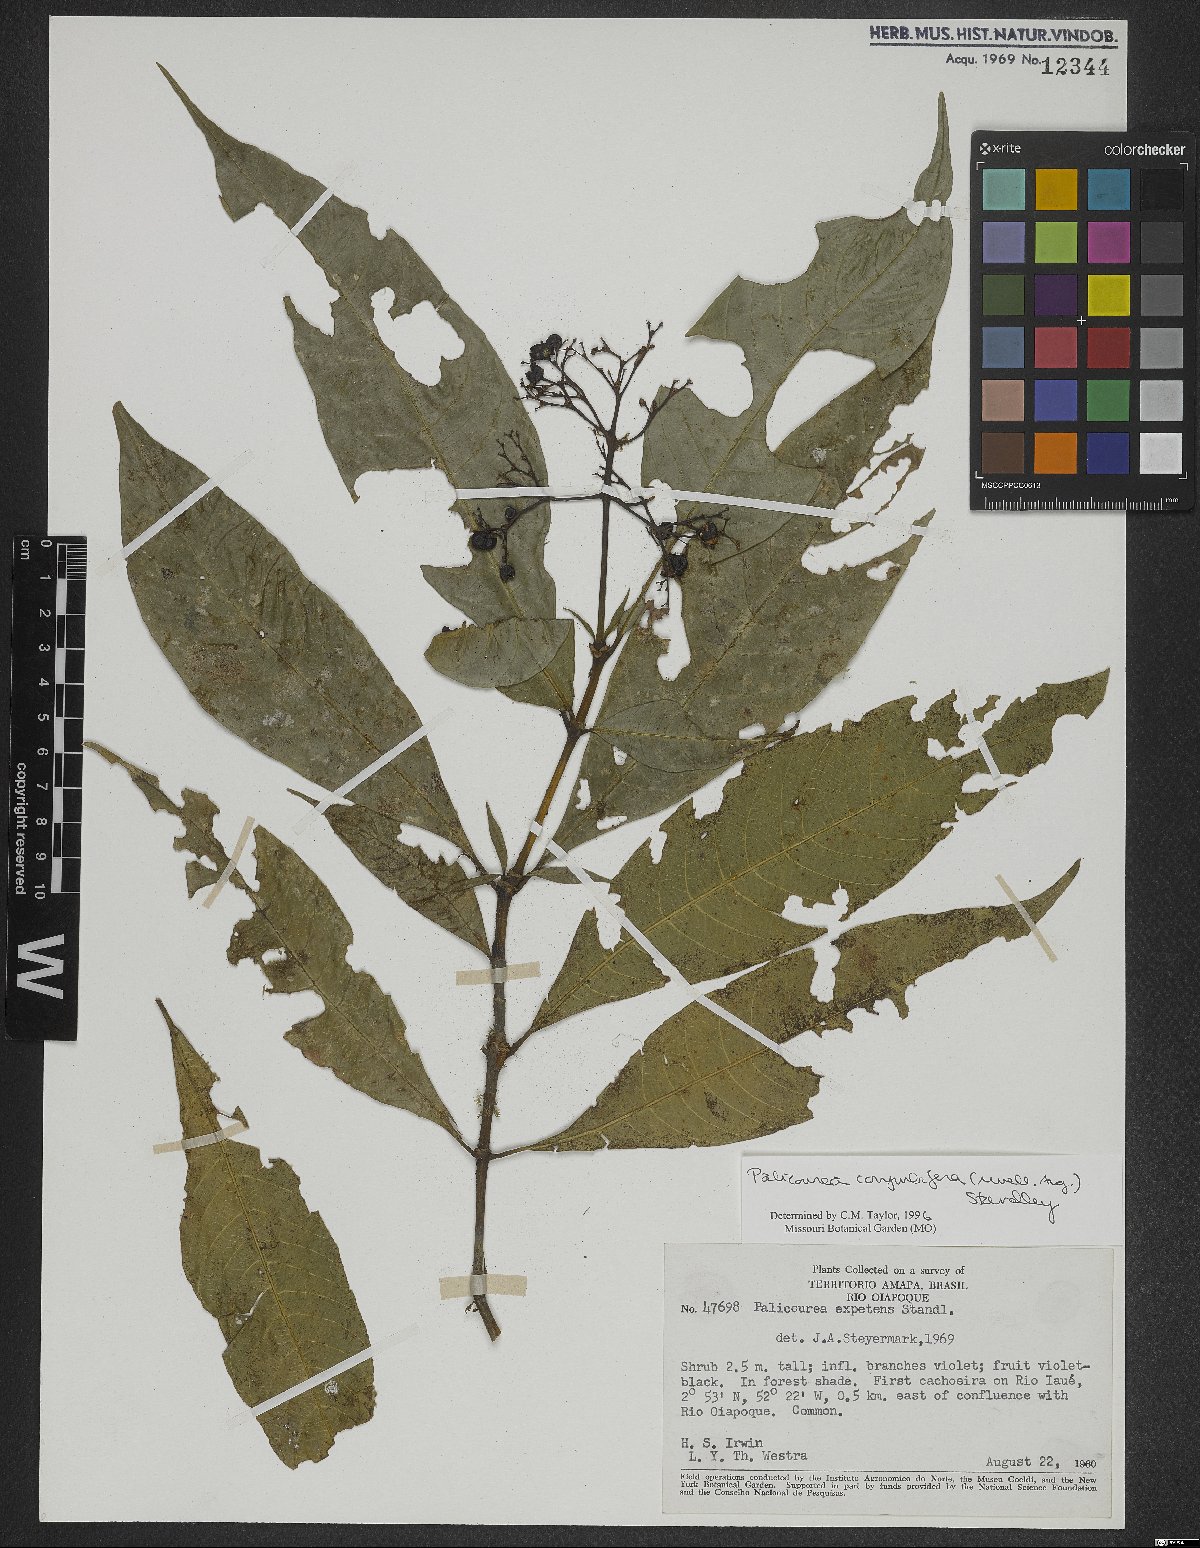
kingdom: Plantae
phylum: Tracheophyta
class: Magnoliopsida
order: Gentianales
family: Rubiaceae
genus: Palicourea
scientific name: Palicourea corymbifera
